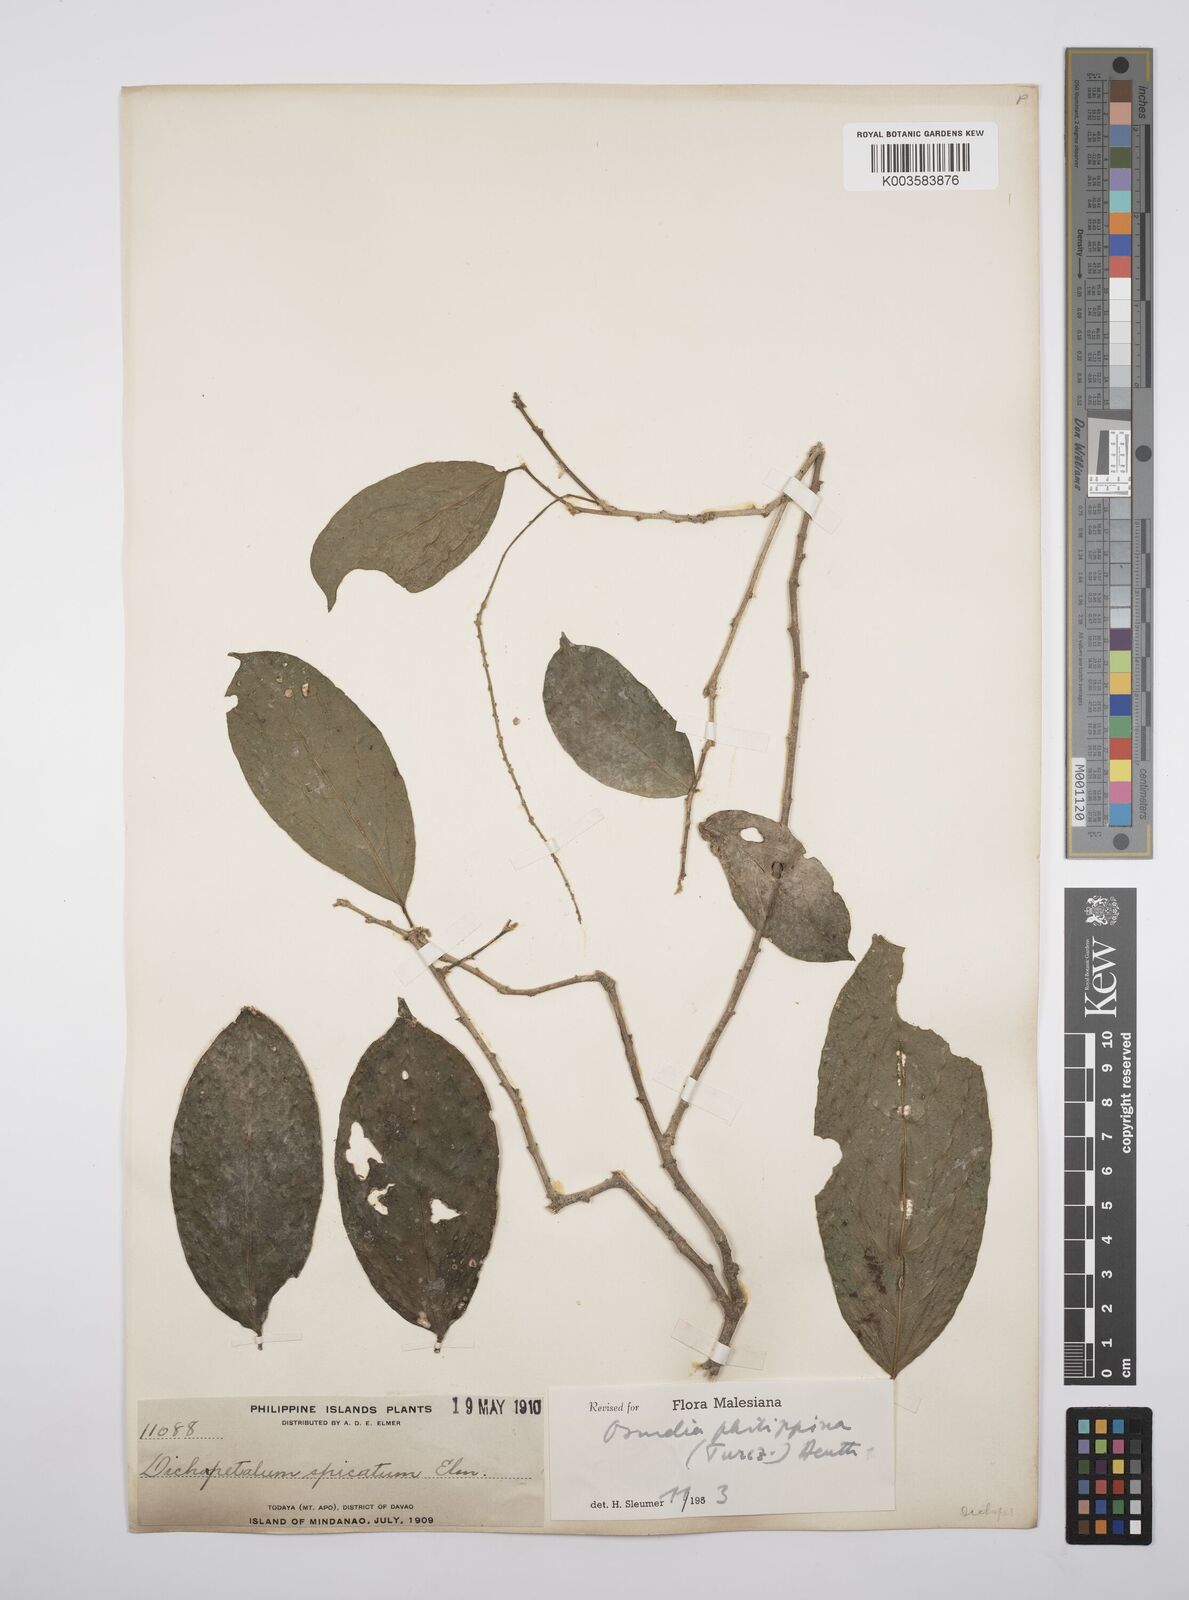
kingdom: Plantae
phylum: Tracheophyta
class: Magnoliopsida
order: Malpighiales
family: Salicaceae
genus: Osmelia
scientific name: Osmelia philippina
